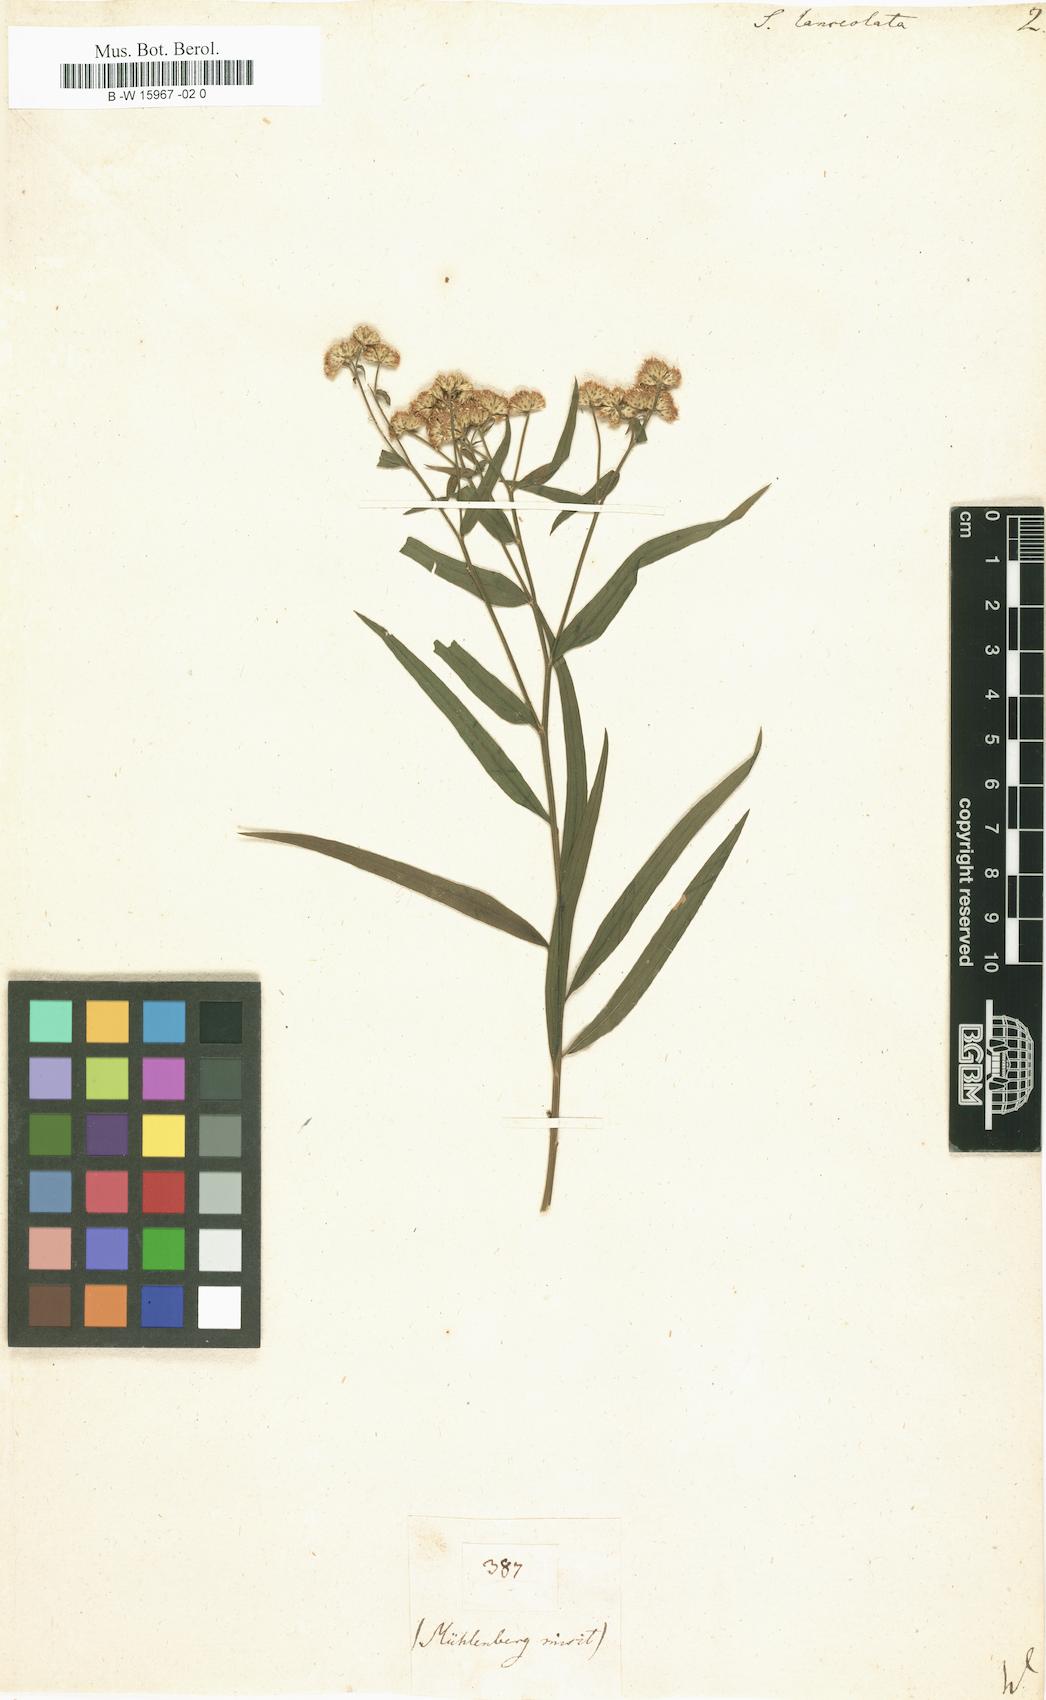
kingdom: Plantae
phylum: Tracheophyta
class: Magnoliopsida
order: Asterales
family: Asteraceae
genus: Euthamia
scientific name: Euthamia lanceolata
